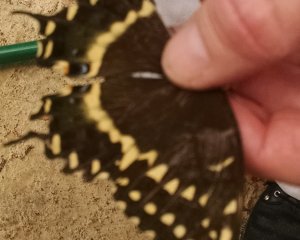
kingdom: Animalia
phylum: Arthropoda
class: Insecta
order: Lepidoptera
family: Papilionidae
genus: Pterourus
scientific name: Pterourus palamedes
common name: Palamedes Swallowtail
